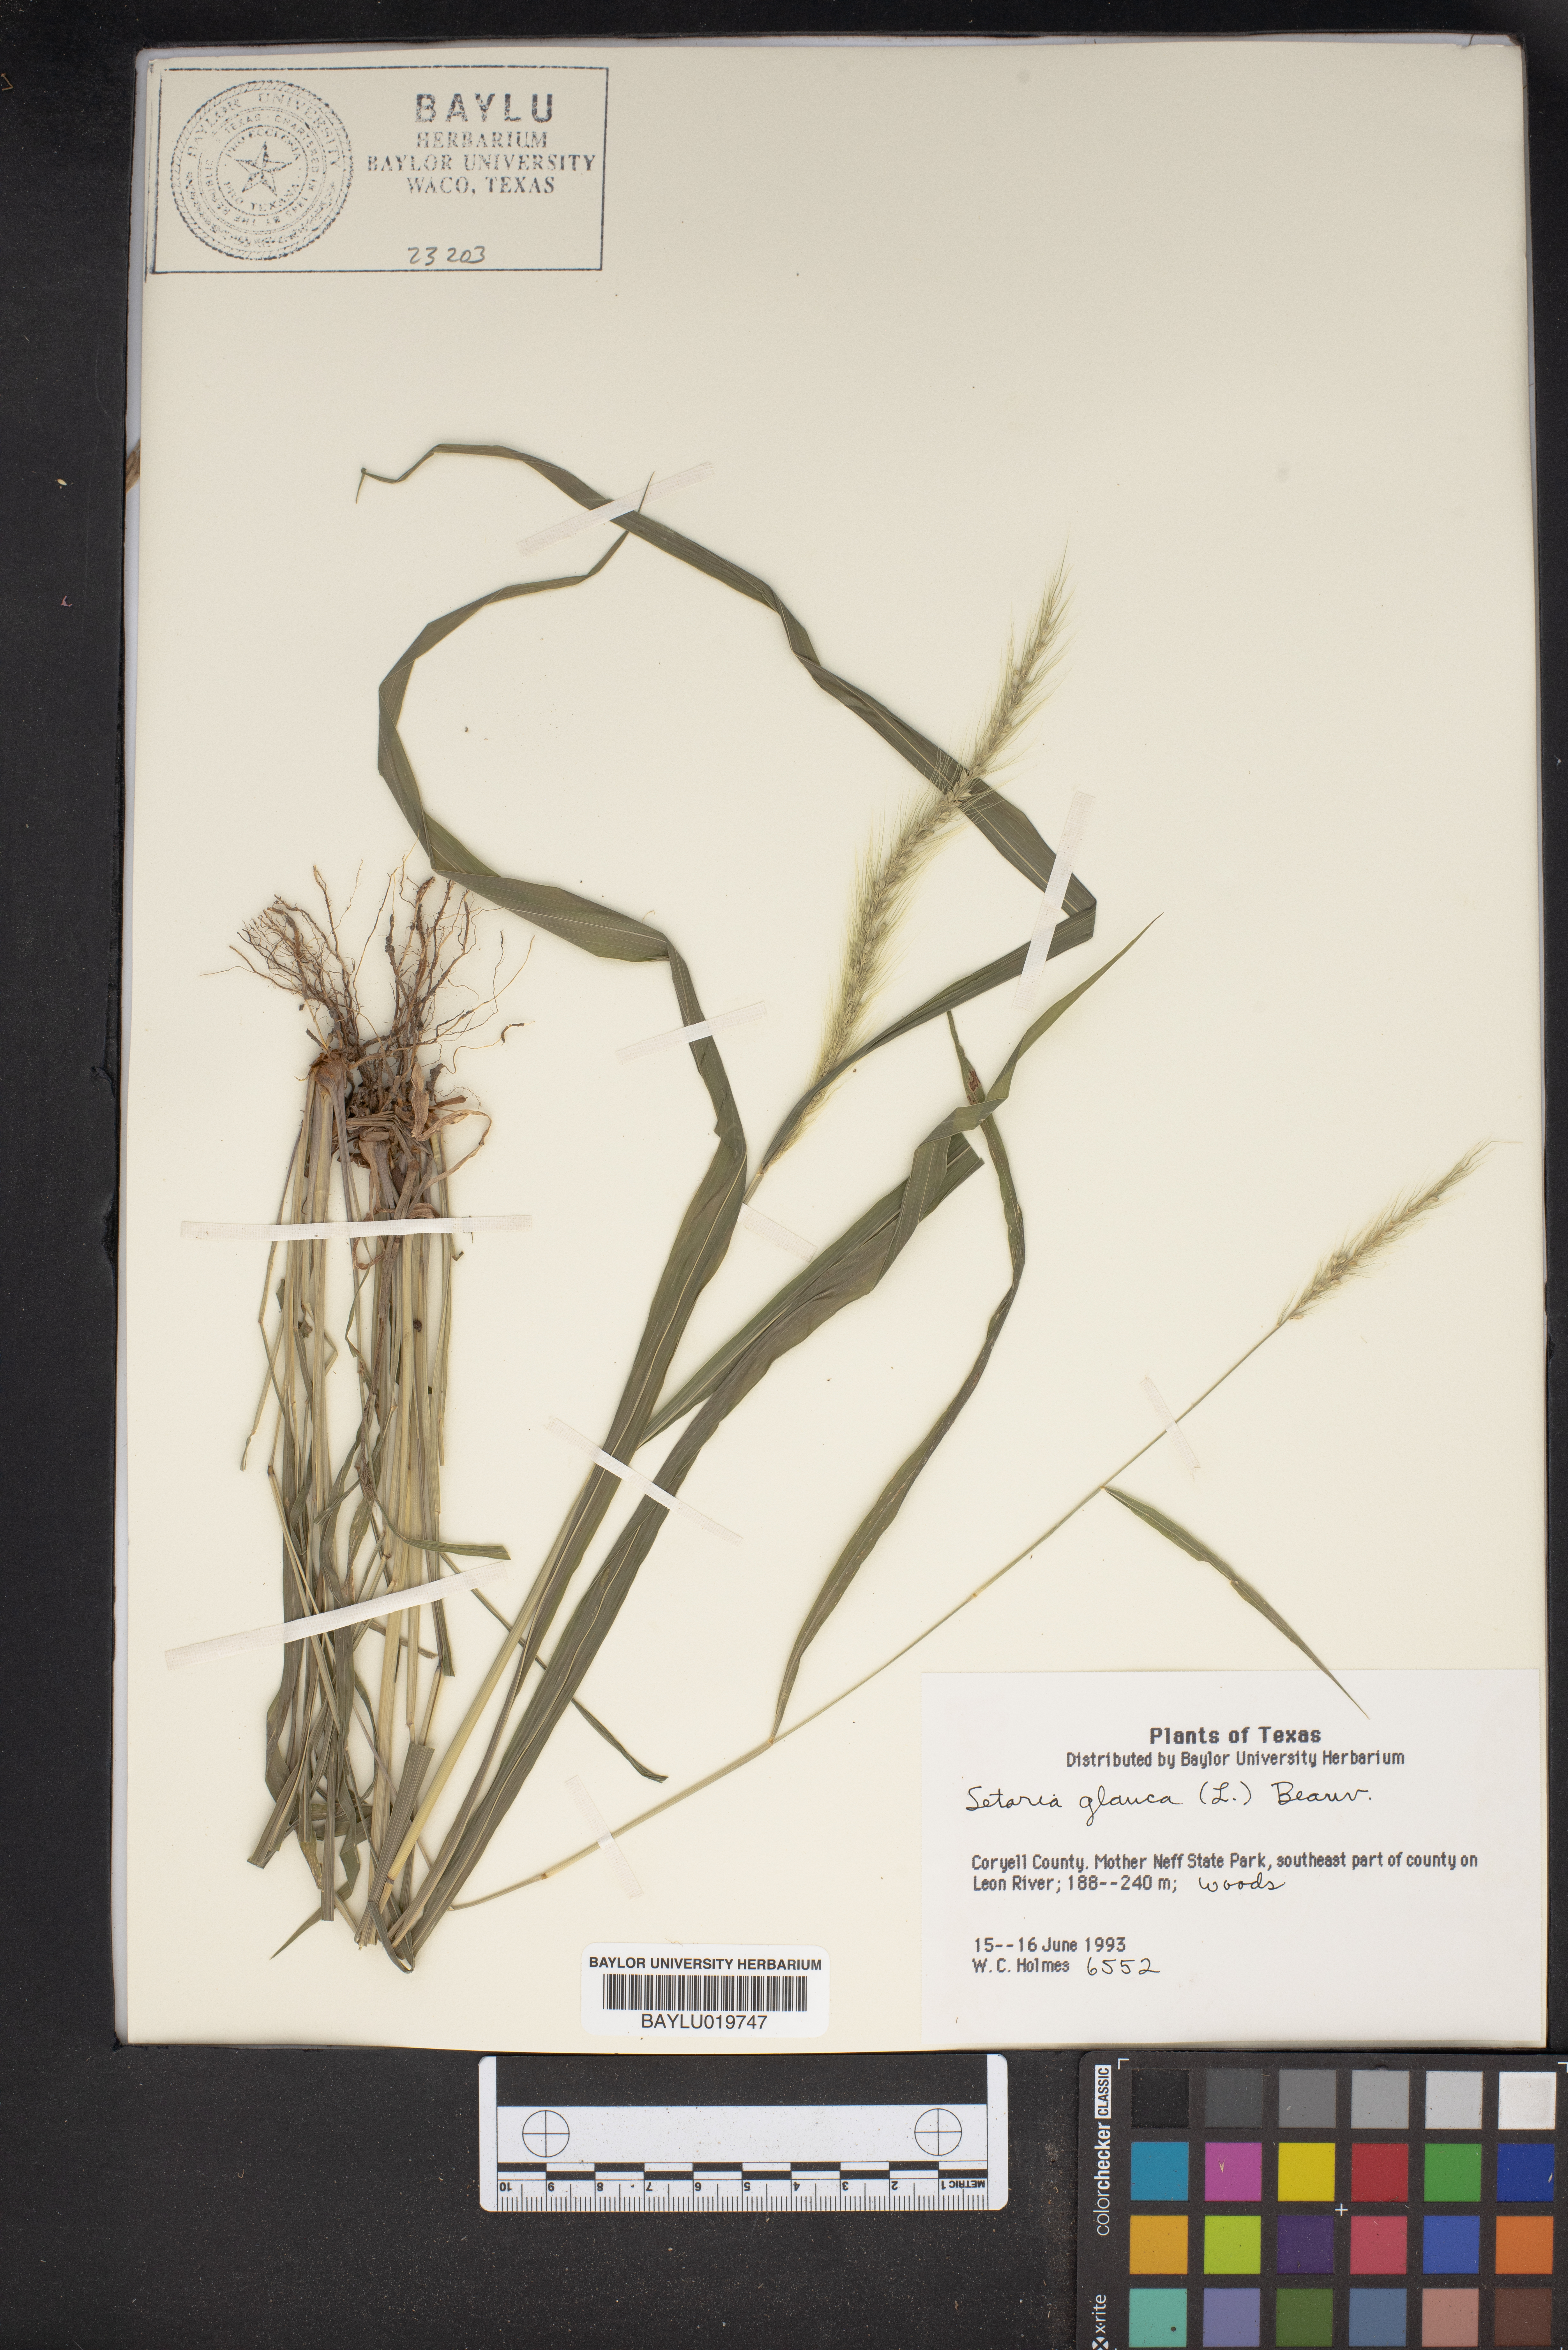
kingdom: Plantae
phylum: Tracheophyta
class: Liliopsida
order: Poales
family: Poaceae
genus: Cenchrus
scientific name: Cenchrus americanus
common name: Pearl millet
